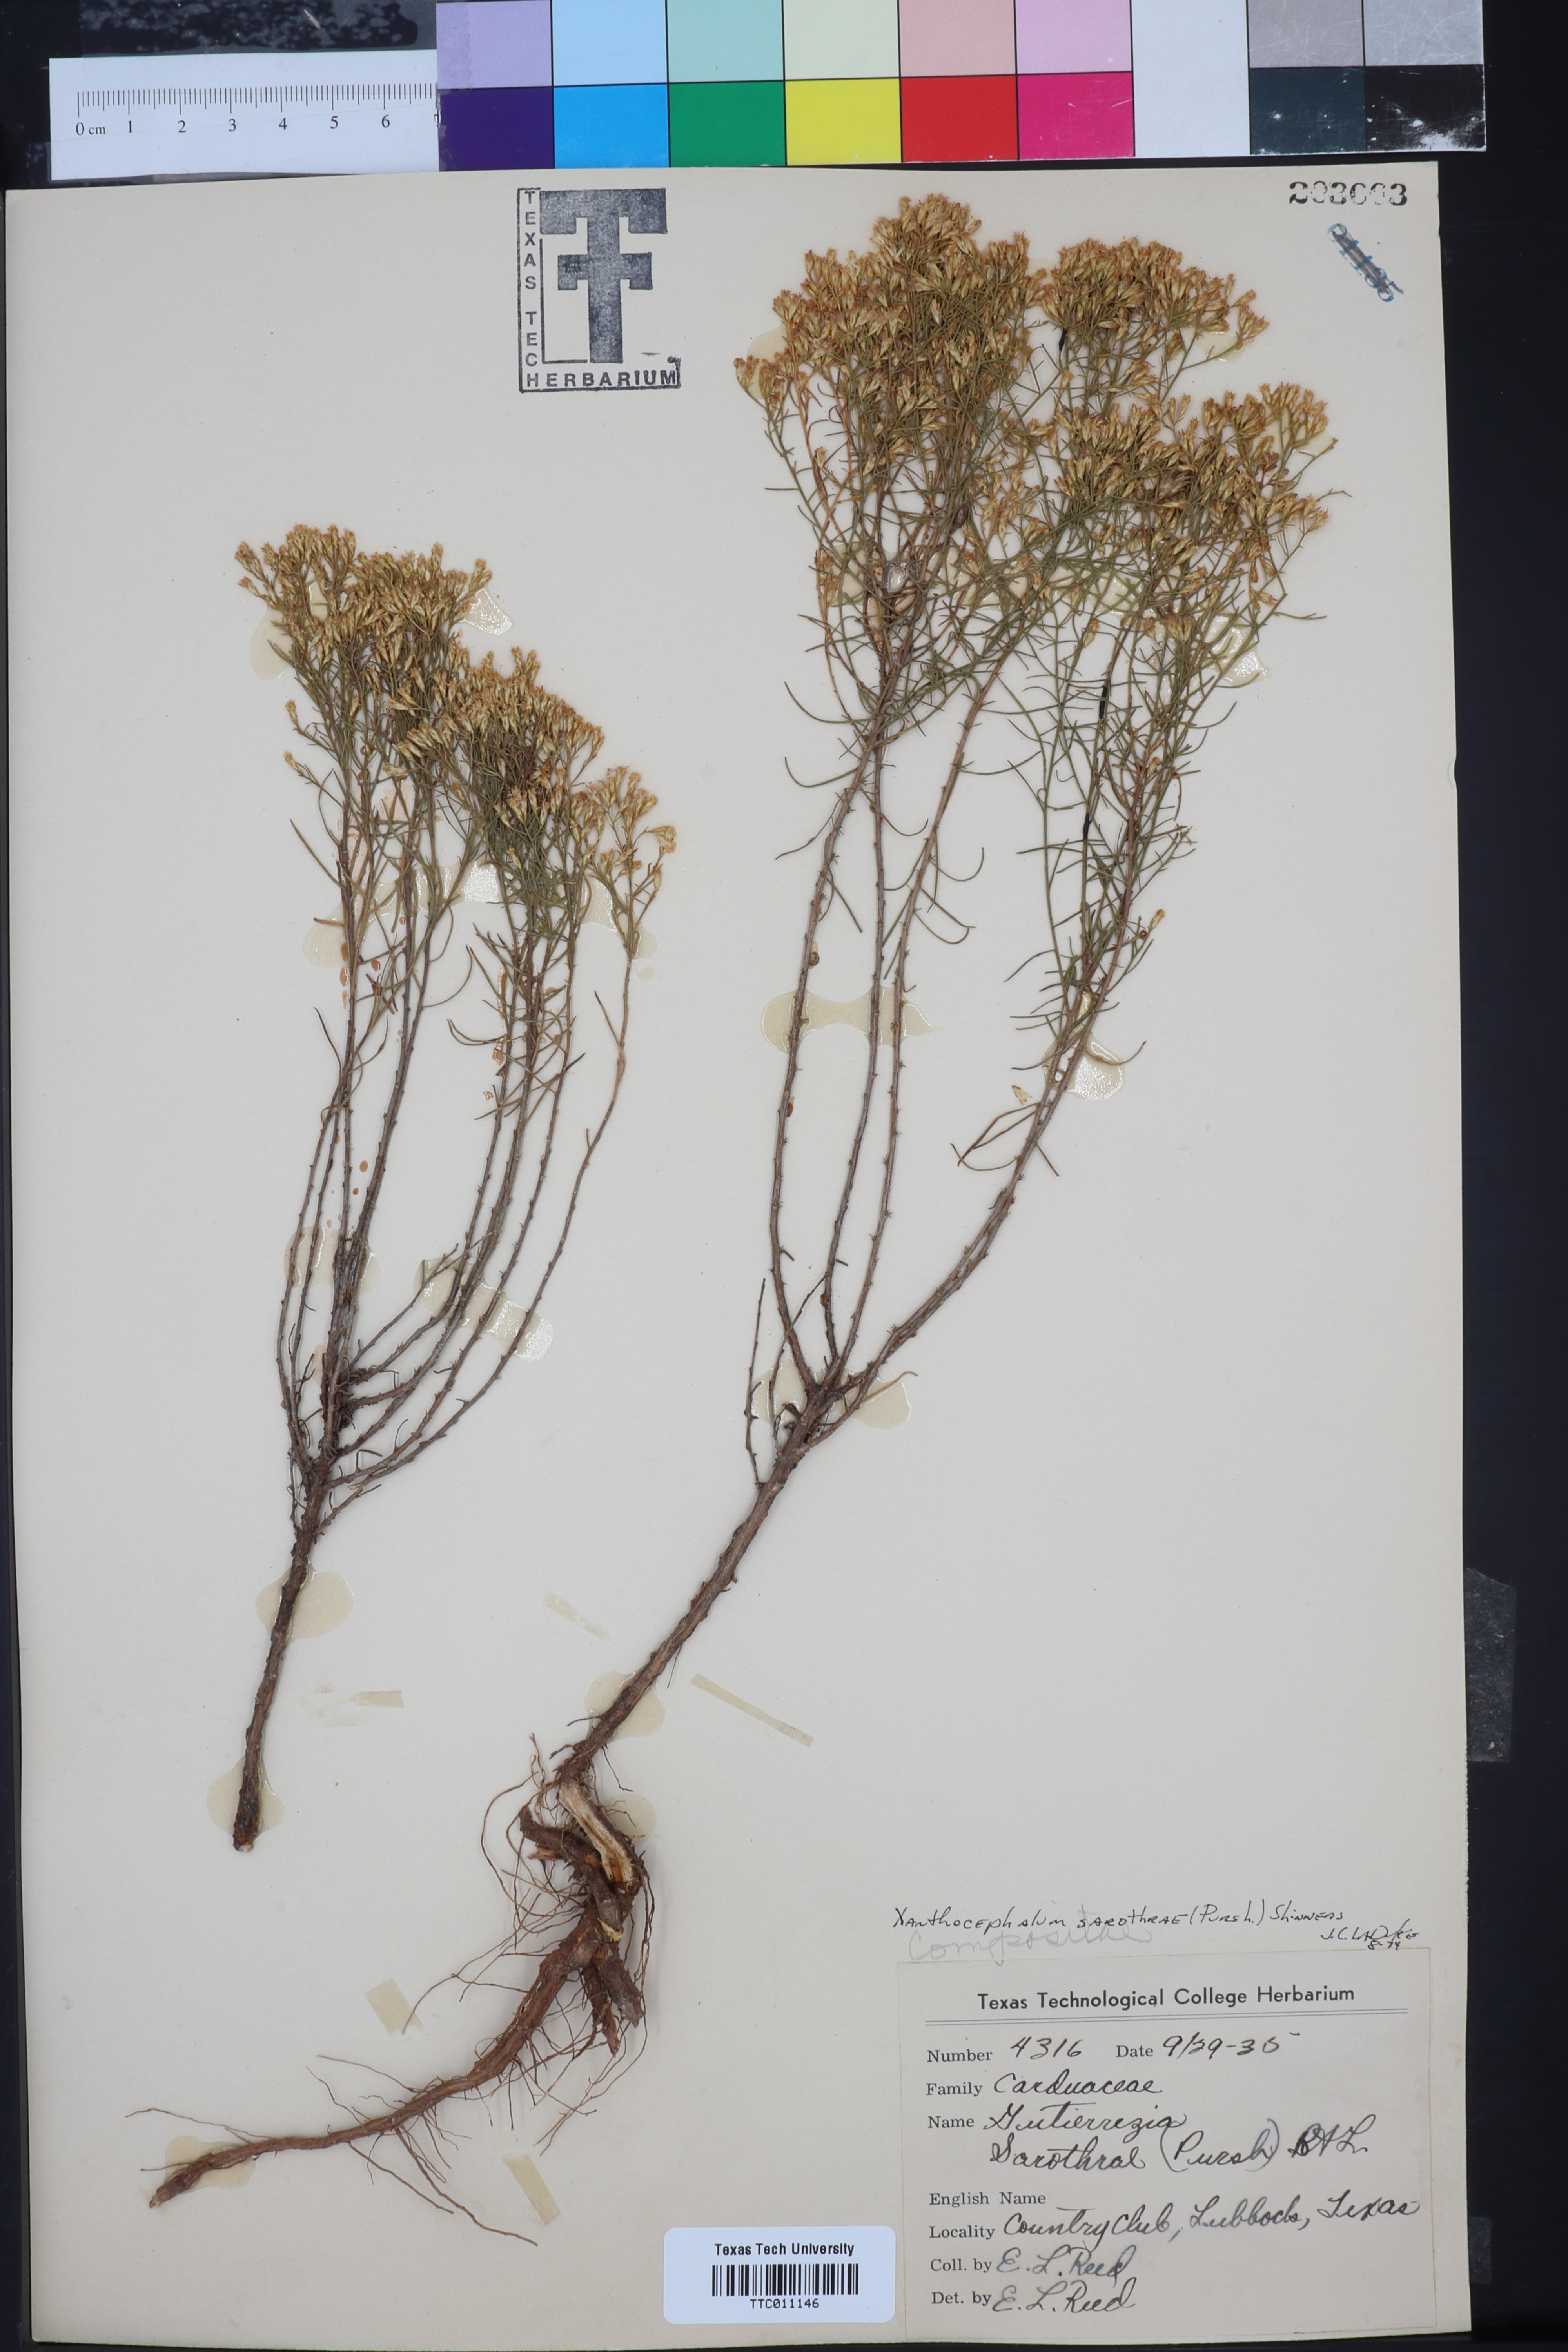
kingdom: Plantae
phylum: Tracheophyta
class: Magnoliopsida
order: Asterales
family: Asteraceae
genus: Gutierrezia
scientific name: Gutierrezia sarothrae
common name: Broom snakeweed
